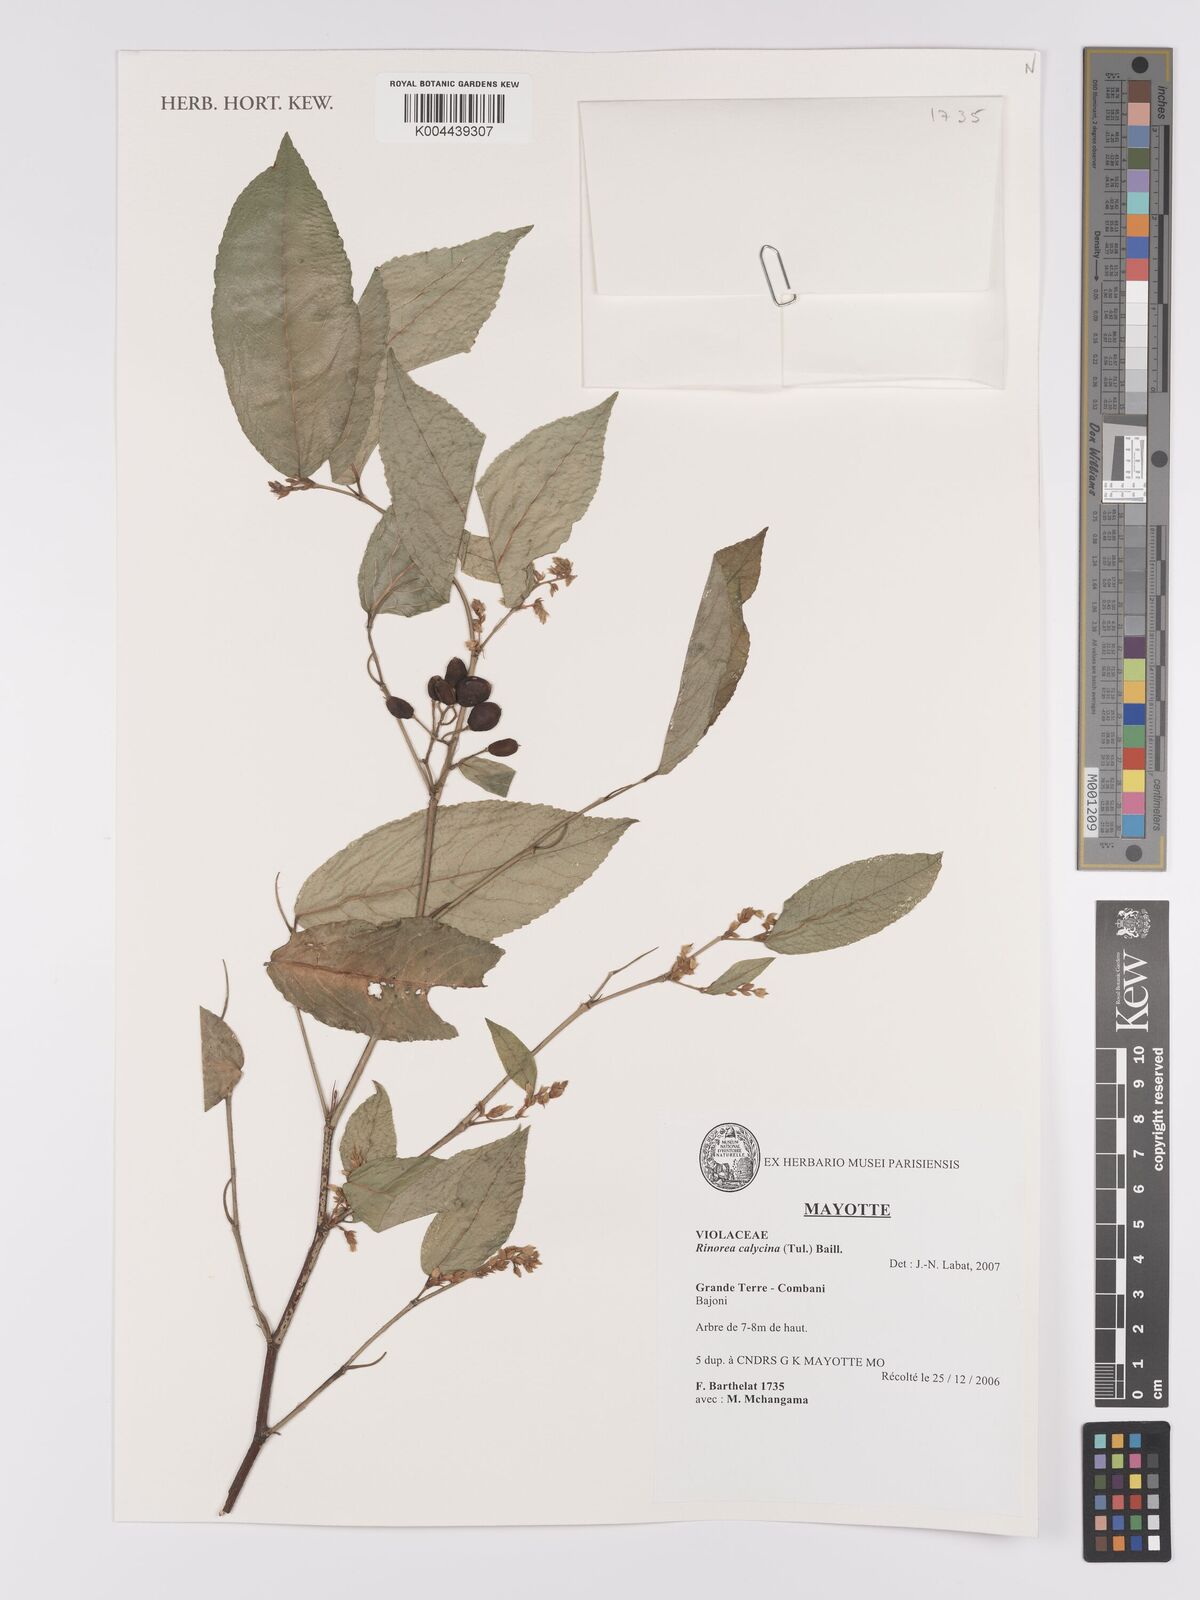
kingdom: Plantae
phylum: Tracheophyta
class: Magnoliopsida
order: Malpighiales
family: Violaceae
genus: Rinorea
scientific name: Rinorea calycina
